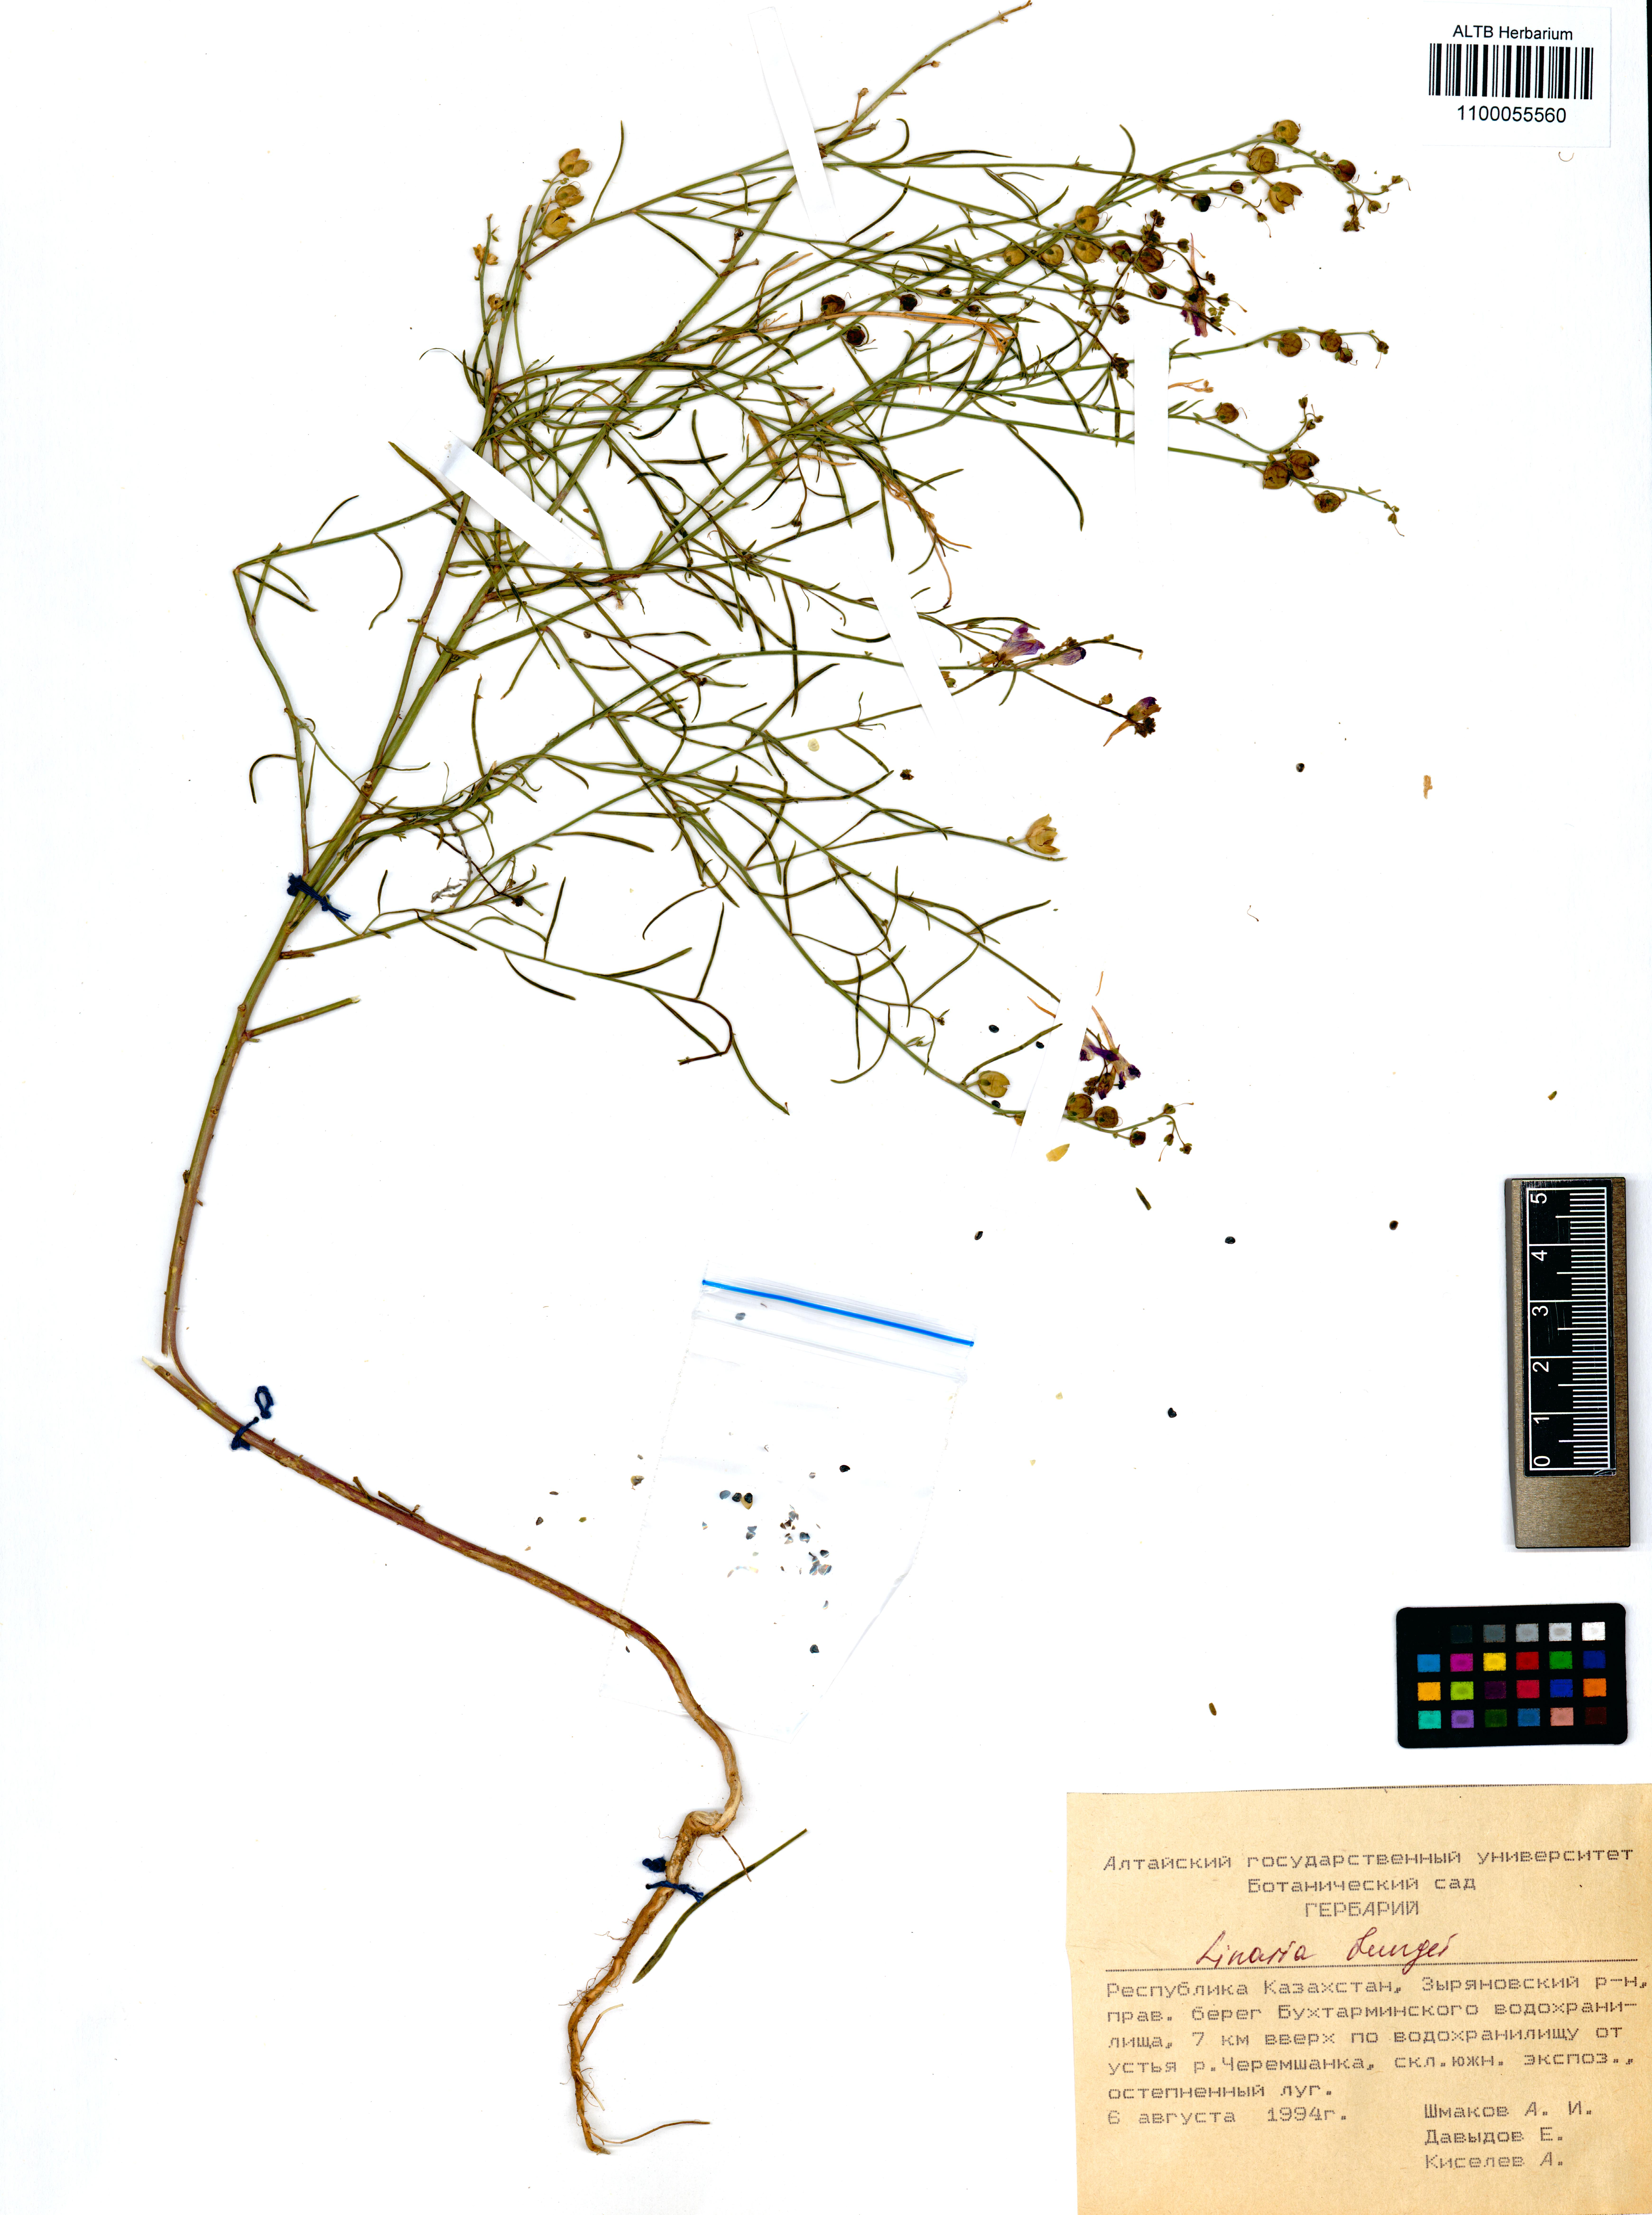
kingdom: Plantae
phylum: Tracheophyta
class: Magnoliopsida
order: Lamiales
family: Plantaginaceae
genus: Linaria
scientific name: Linaria bungei
